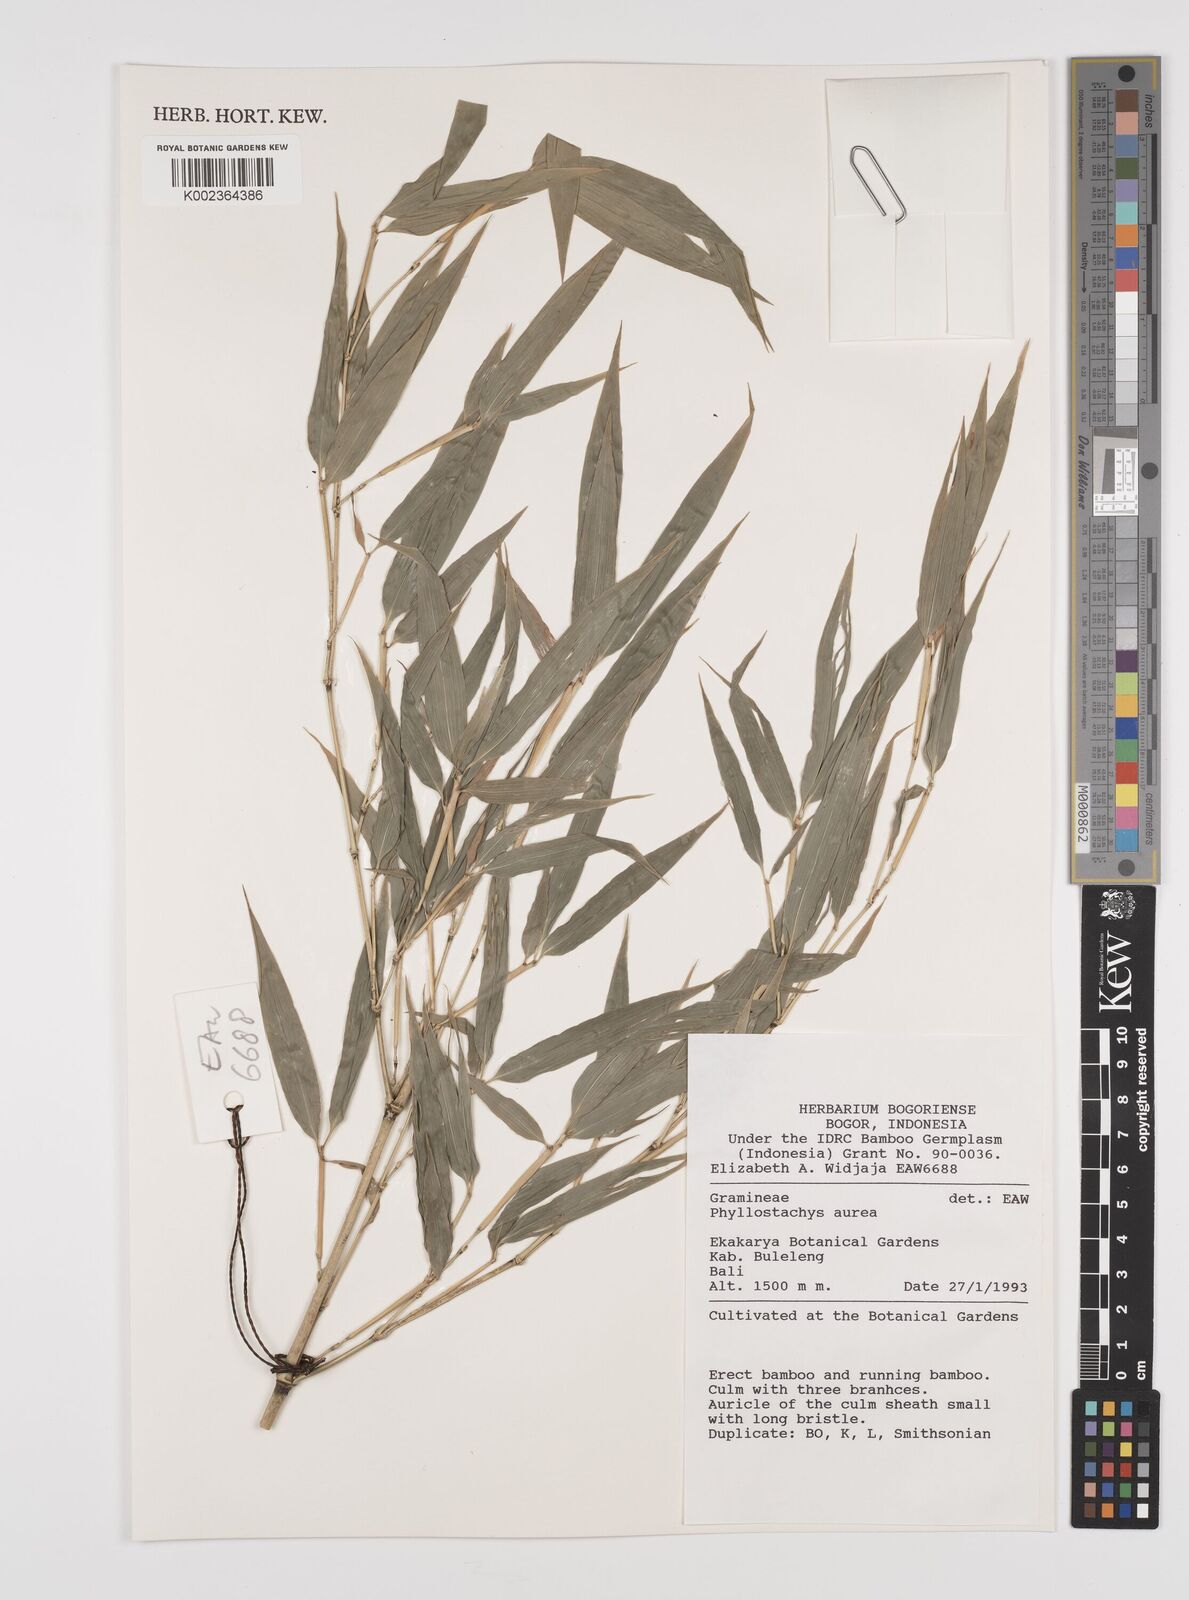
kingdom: Plantae
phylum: Tracheophyta
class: Liliopsida
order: Poales
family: Poaceae
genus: Phyllostachys
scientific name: Phyllostachys
